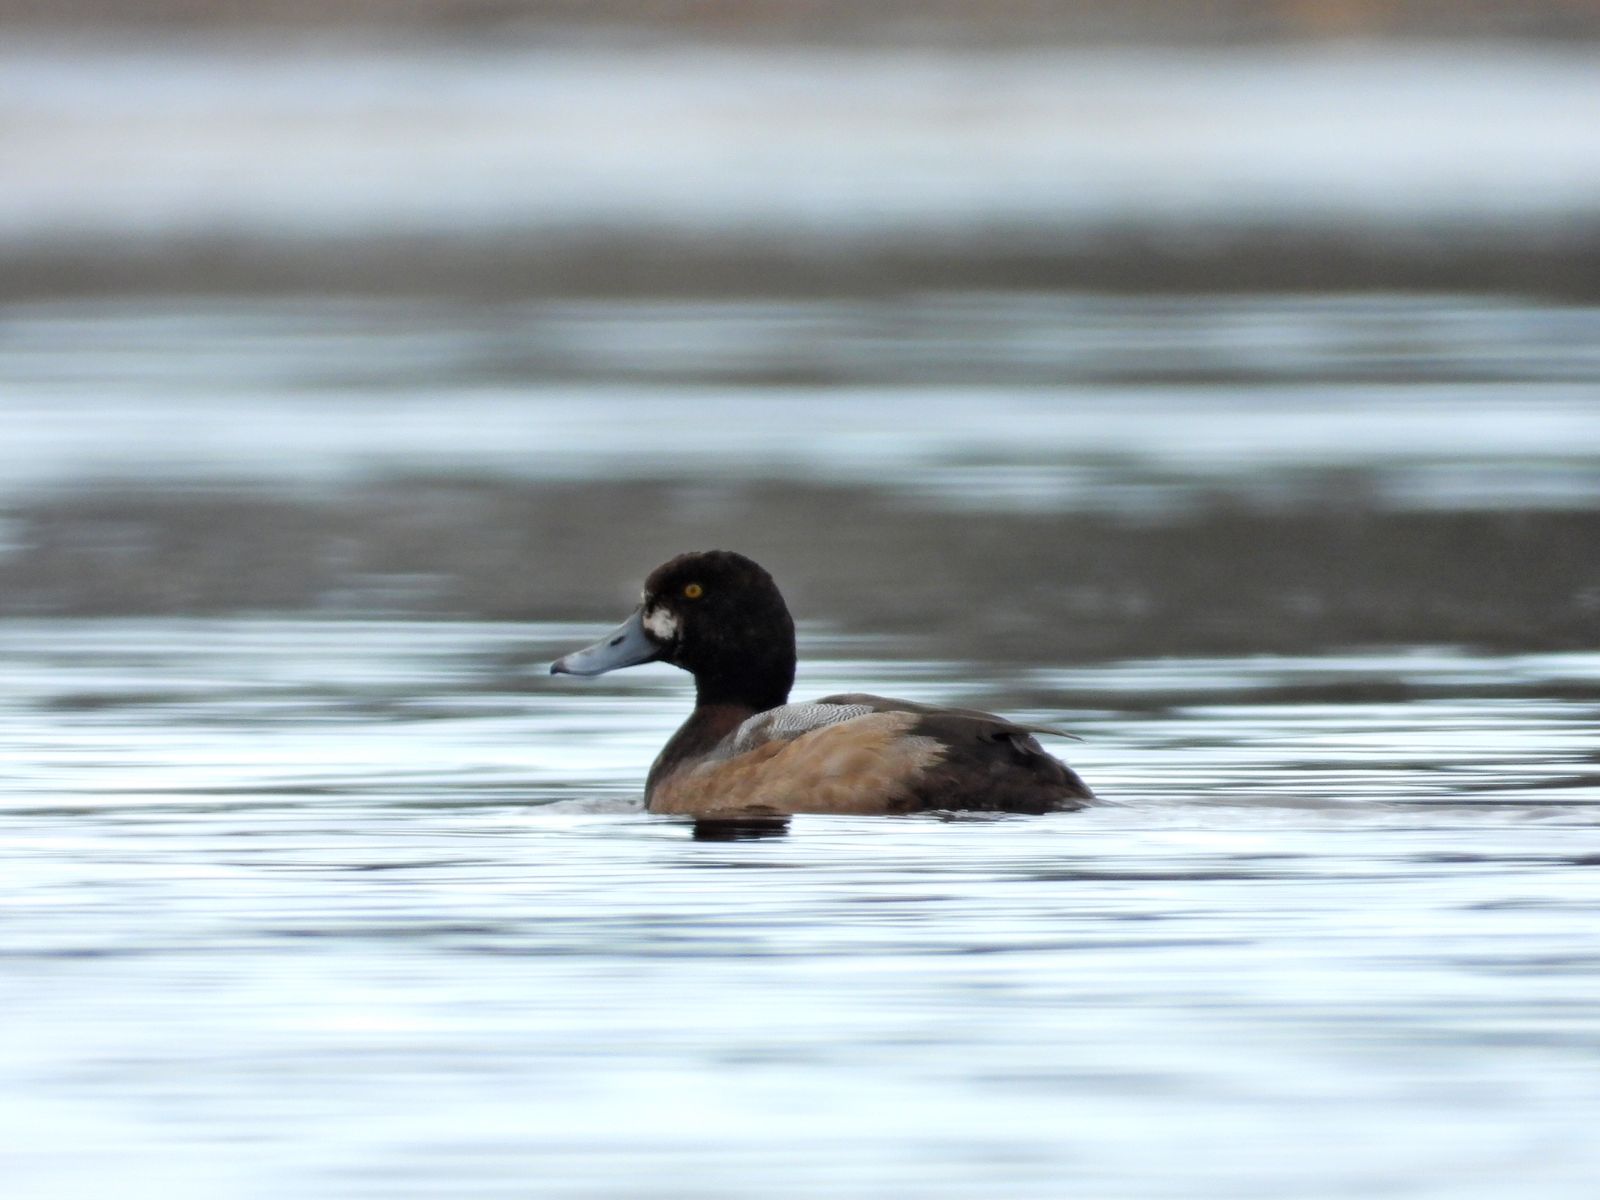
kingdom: Animalia
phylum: Chordata
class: Aves
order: Anseriformes
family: Anatidae
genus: Aythya
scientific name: Aythya marila
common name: Greater scaup
